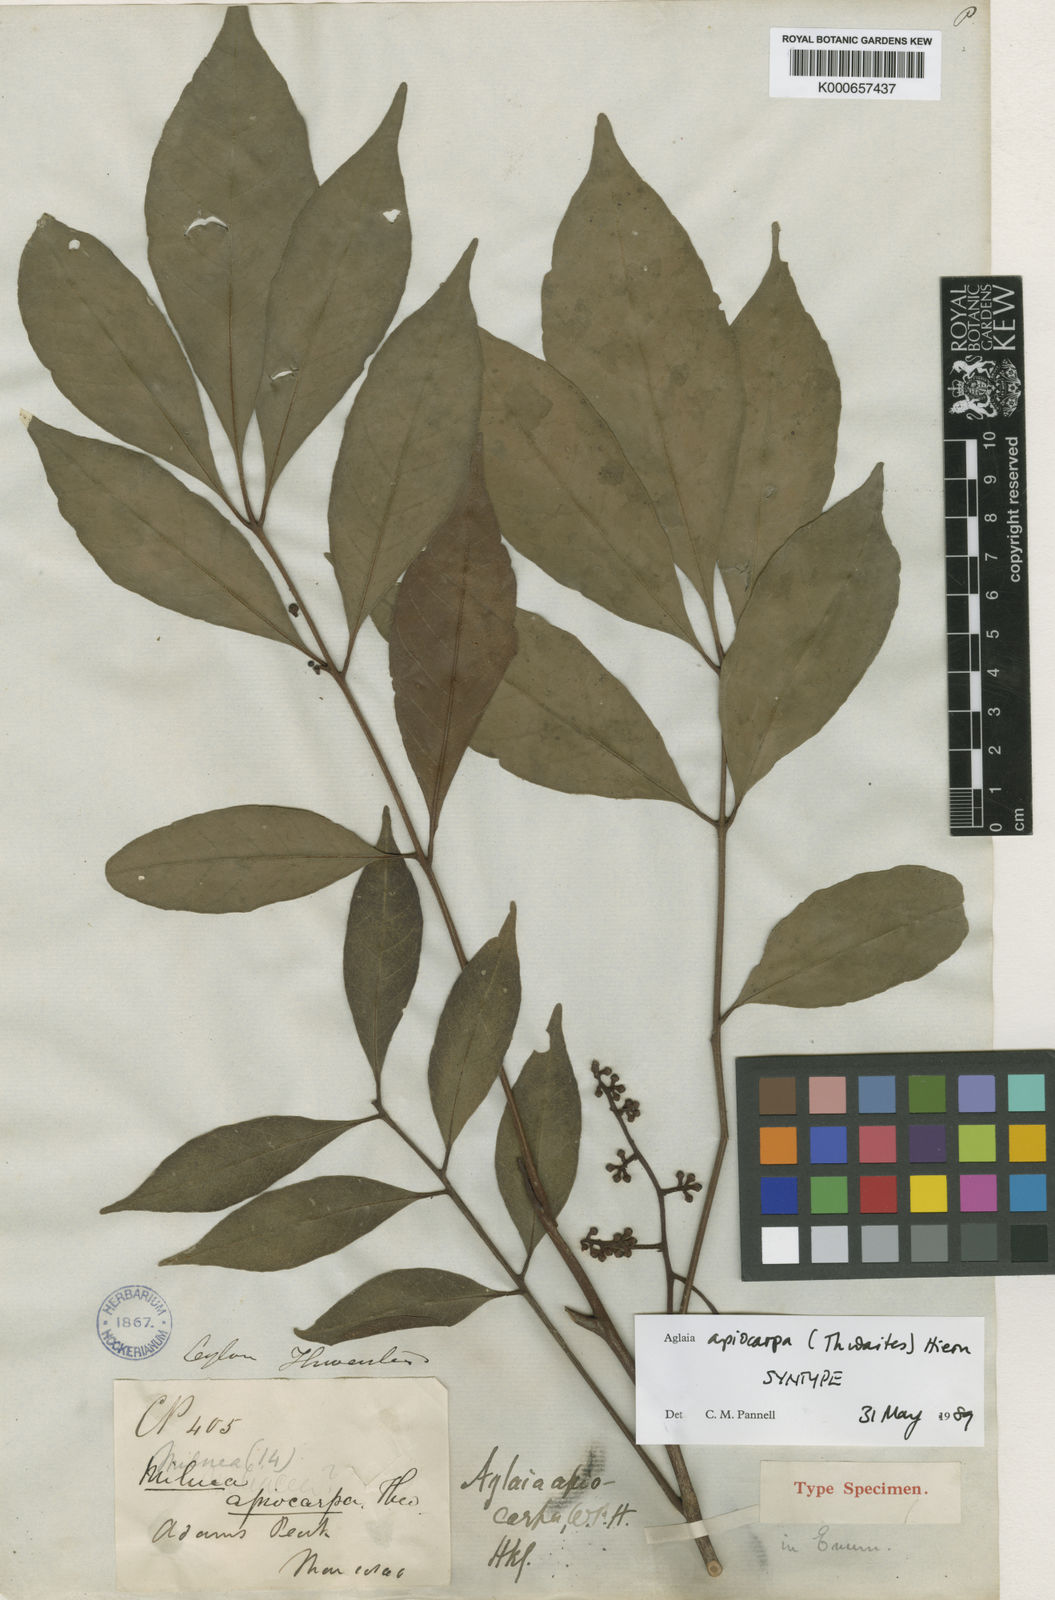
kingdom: Plantae
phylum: Tracheophyta
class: Magnoliopsida
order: Sapindales
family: Meliaceae
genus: Aglaia
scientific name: Aglaia apiocarpa
